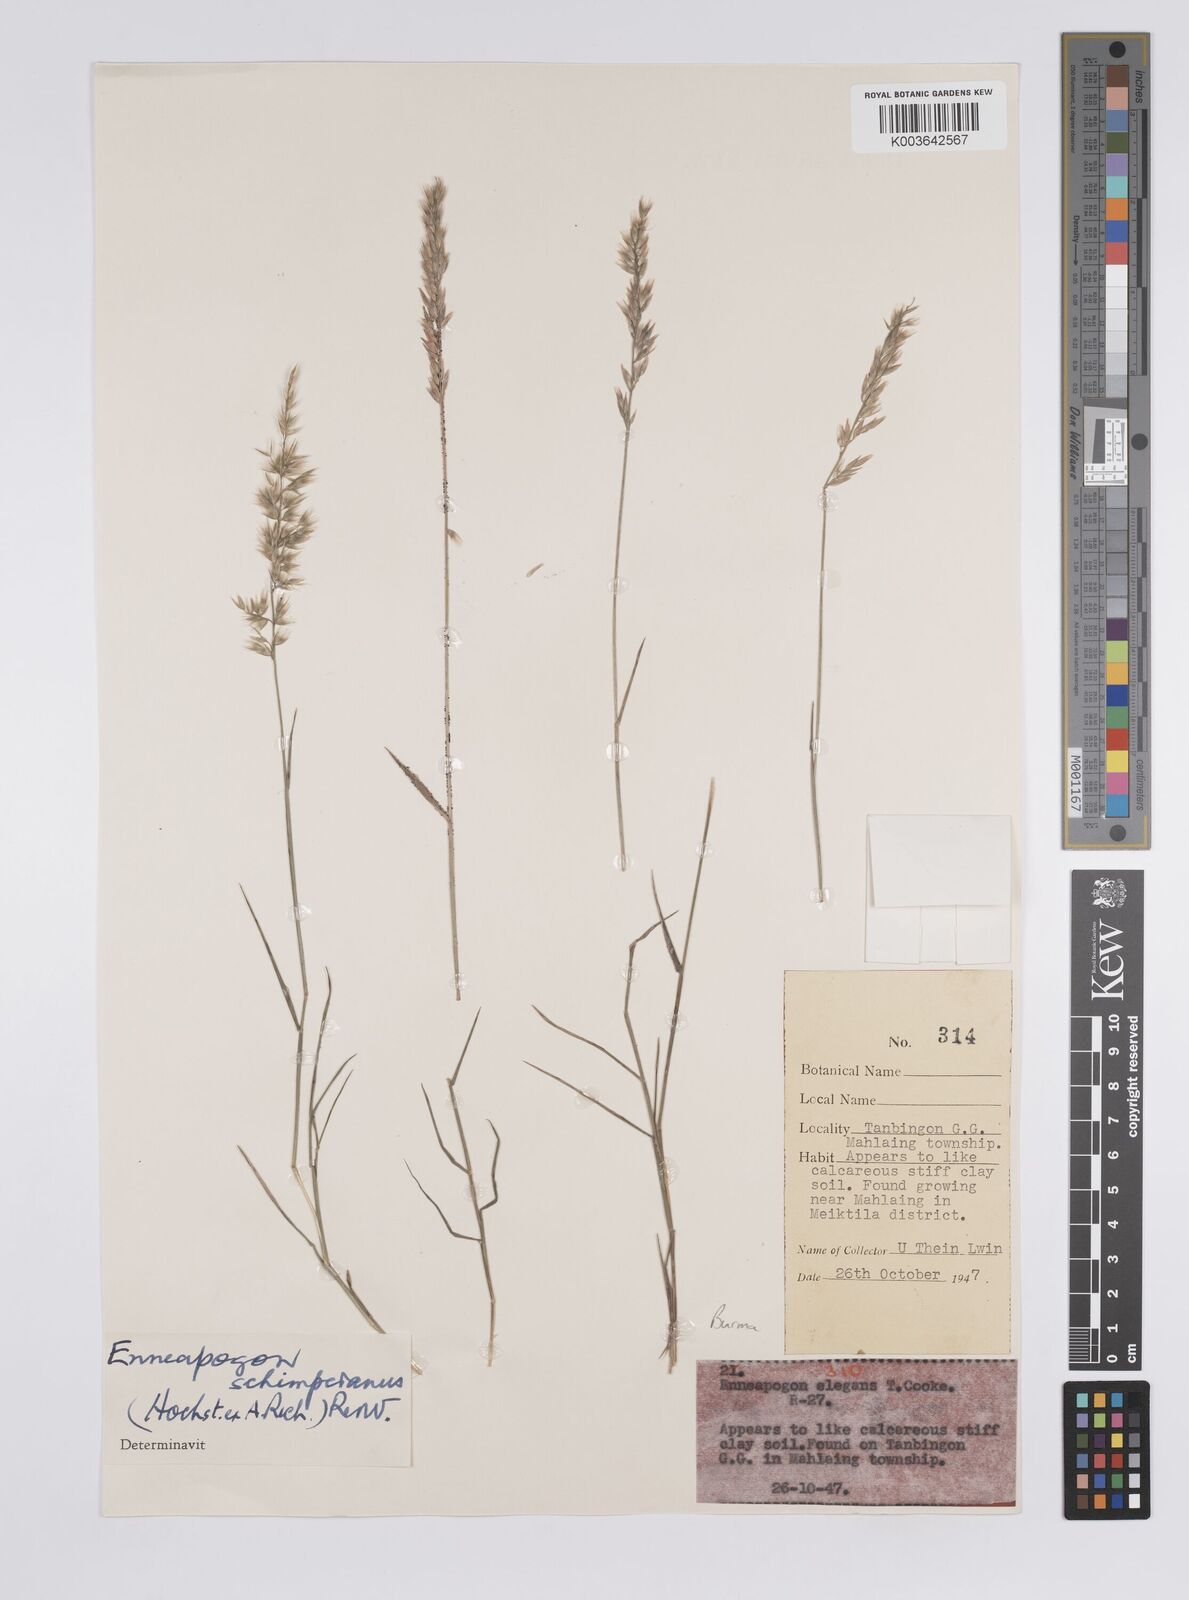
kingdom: Plantae
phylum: Tracheophyta
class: Liliopsida
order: Poales
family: Poaceae
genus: Enneapogon
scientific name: Enneapogon persicus
